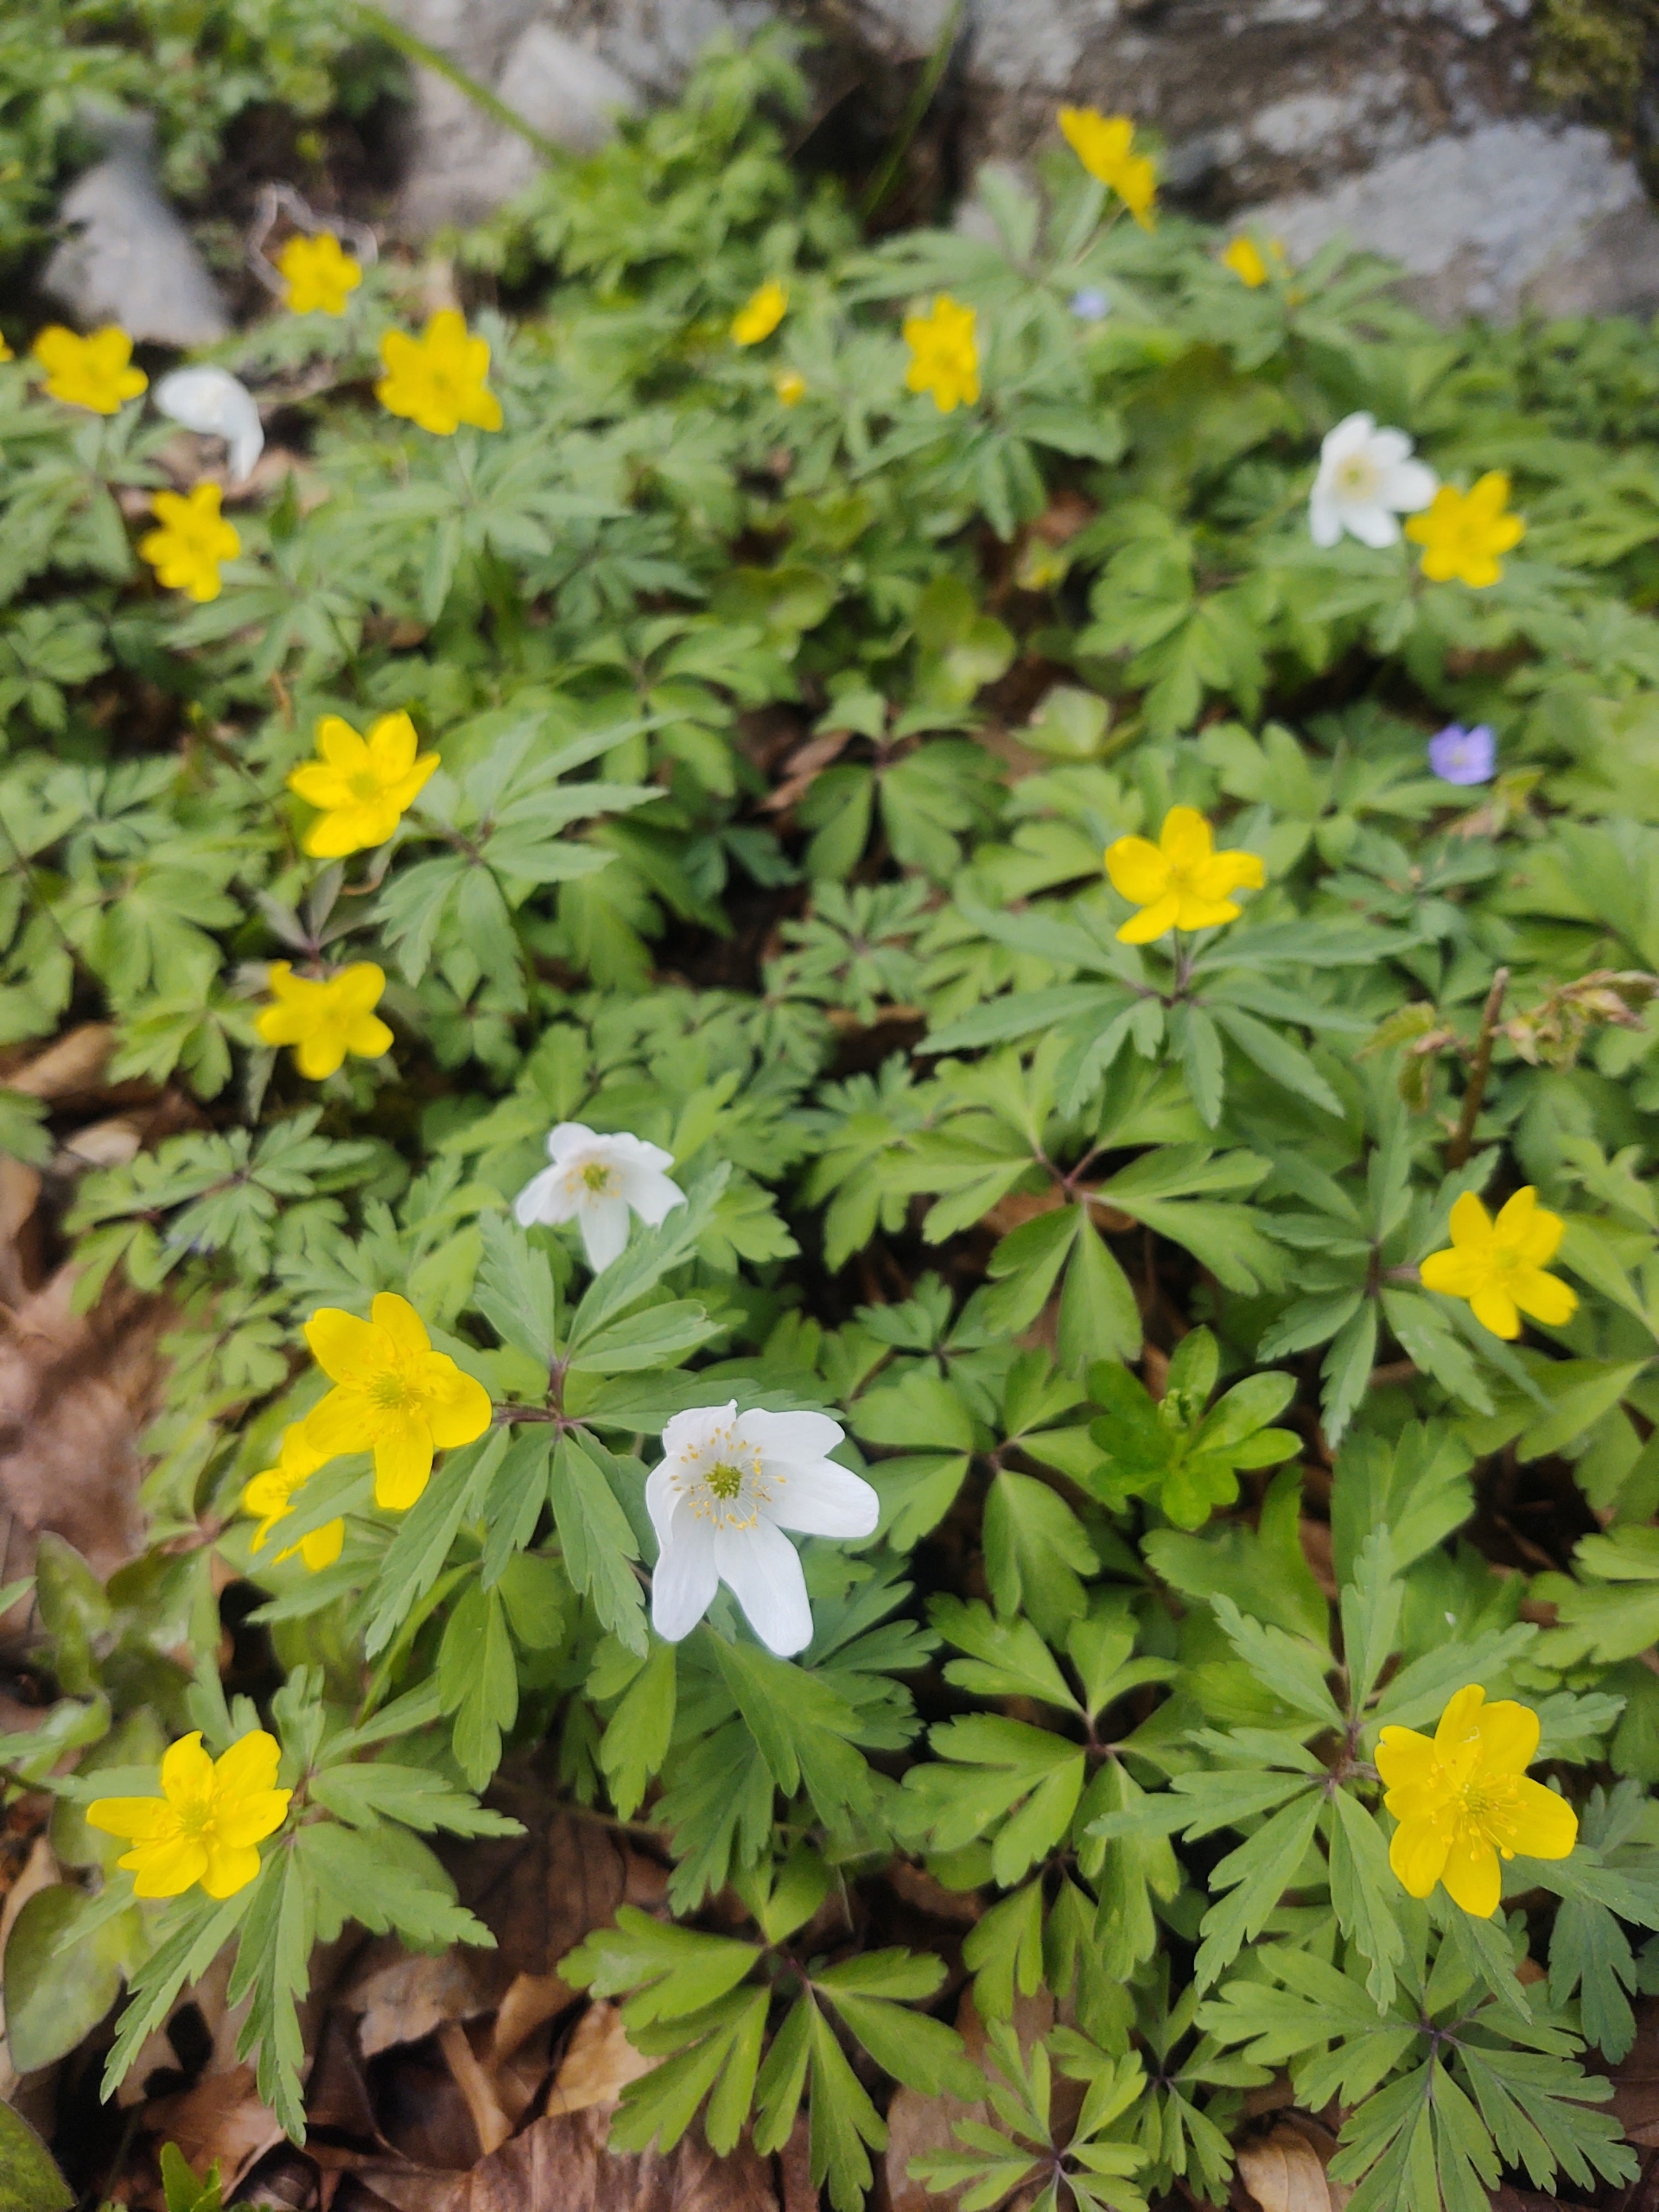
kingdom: Plantae
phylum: Tracheophyta
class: Magnoliopsida
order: Ranunculales
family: Ranunculaceae
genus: Anemone
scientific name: Anemone ranunculoides
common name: Gul anemone
